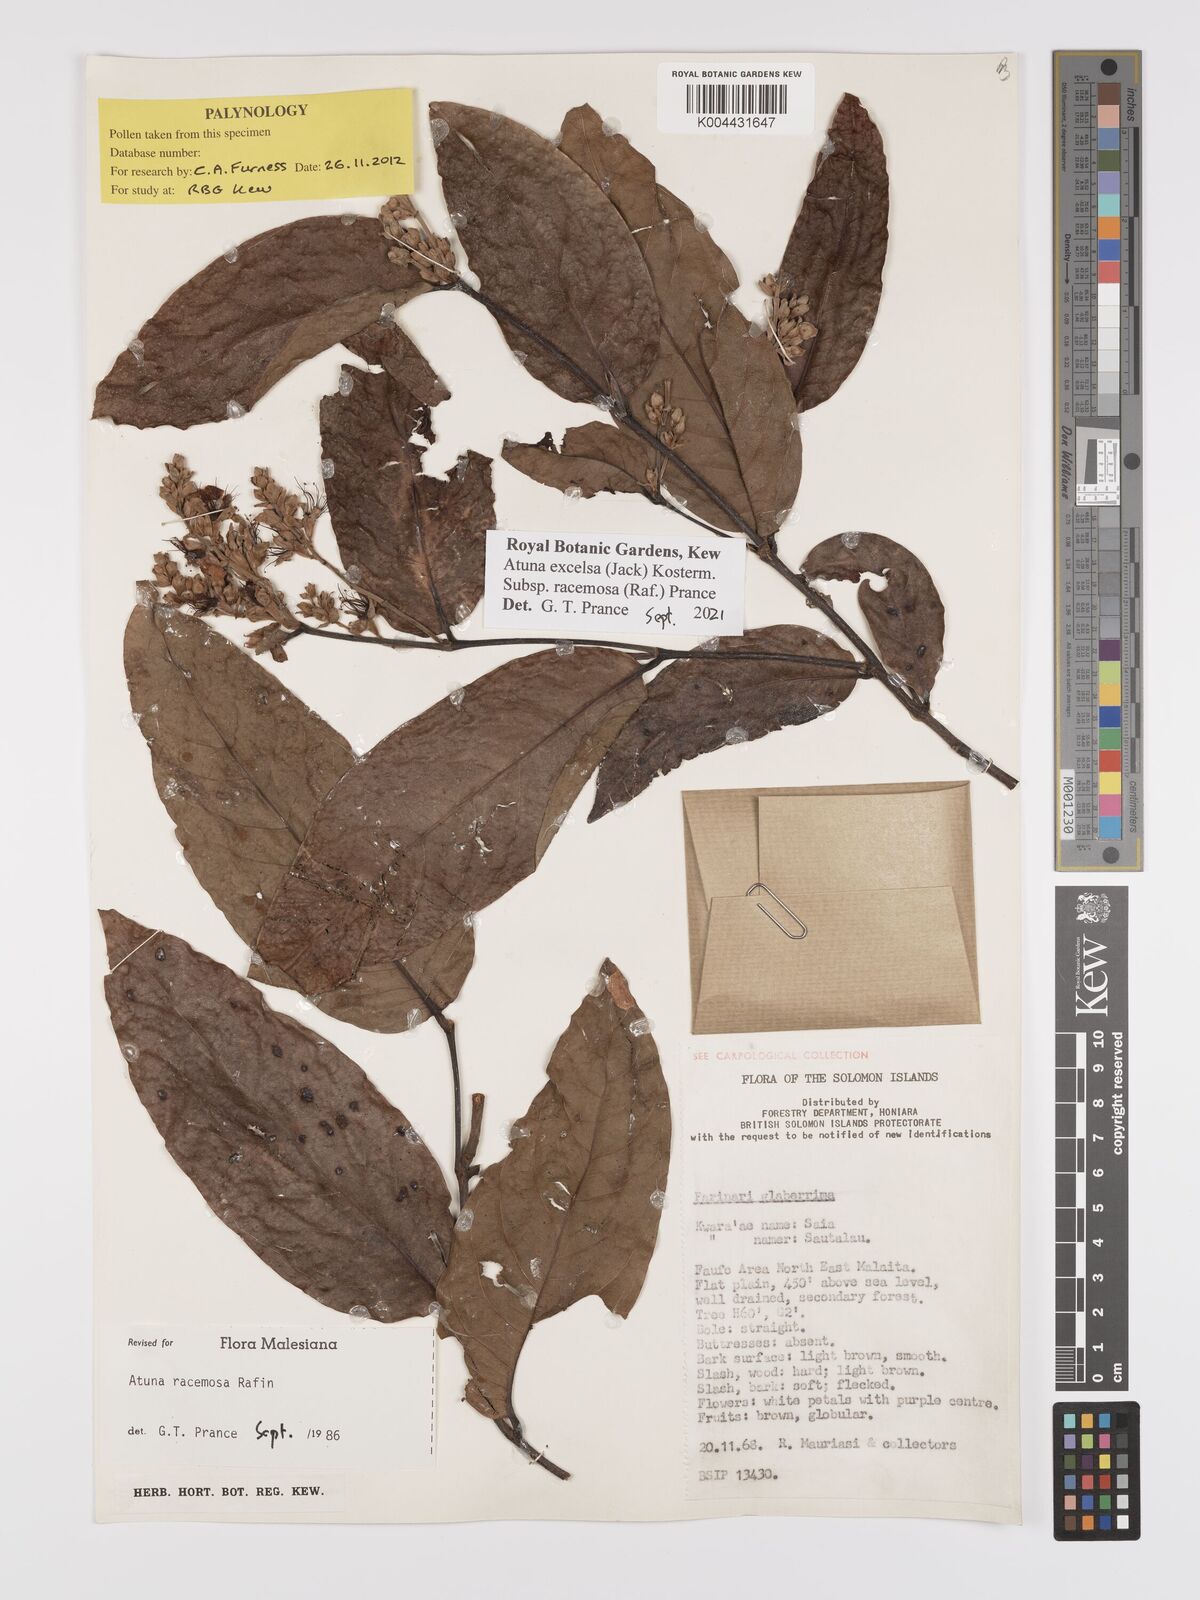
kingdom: Plantae
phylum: Tracheophyta
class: Magnoliopsida
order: Malpighiales
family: Chrysobalanaceae
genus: Atuna
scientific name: Atuna
